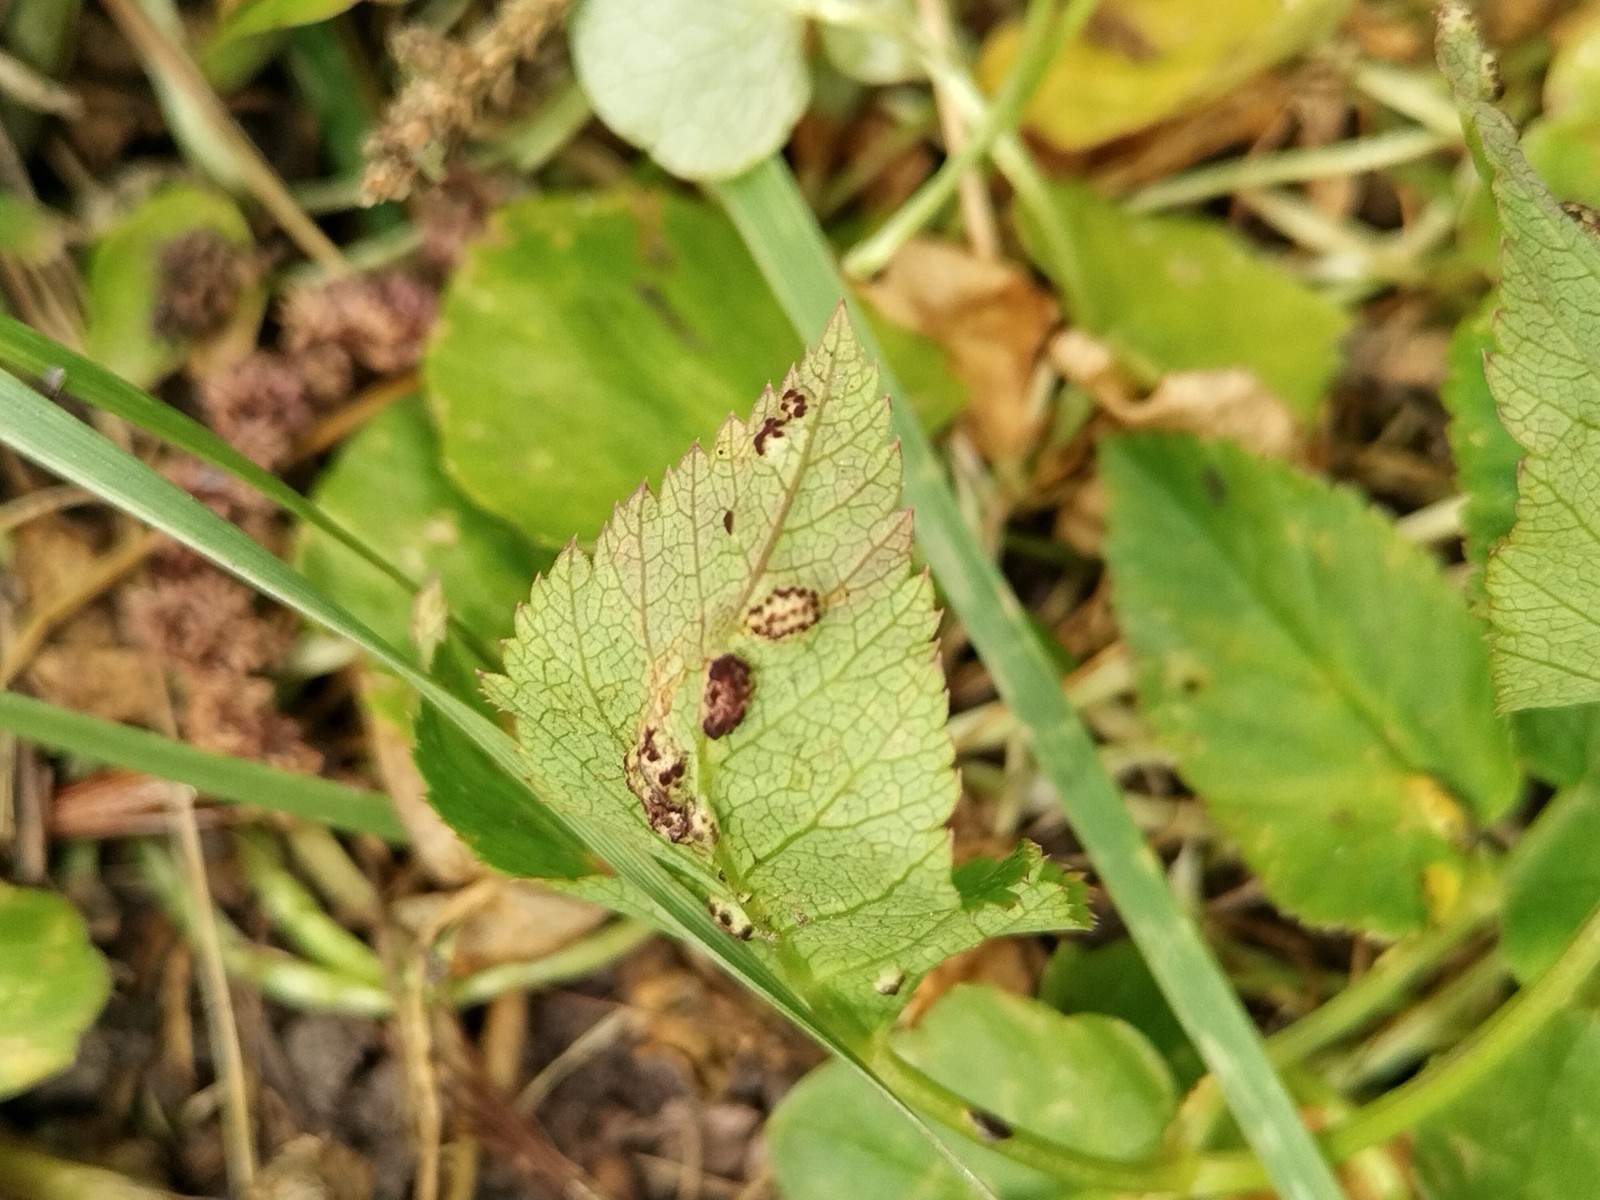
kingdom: Fungi
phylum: Basidiomycota
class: Pucciniomycetes
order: Pucciniales
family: Pucciniaceae
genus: Puccinia
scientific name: Puccinia
